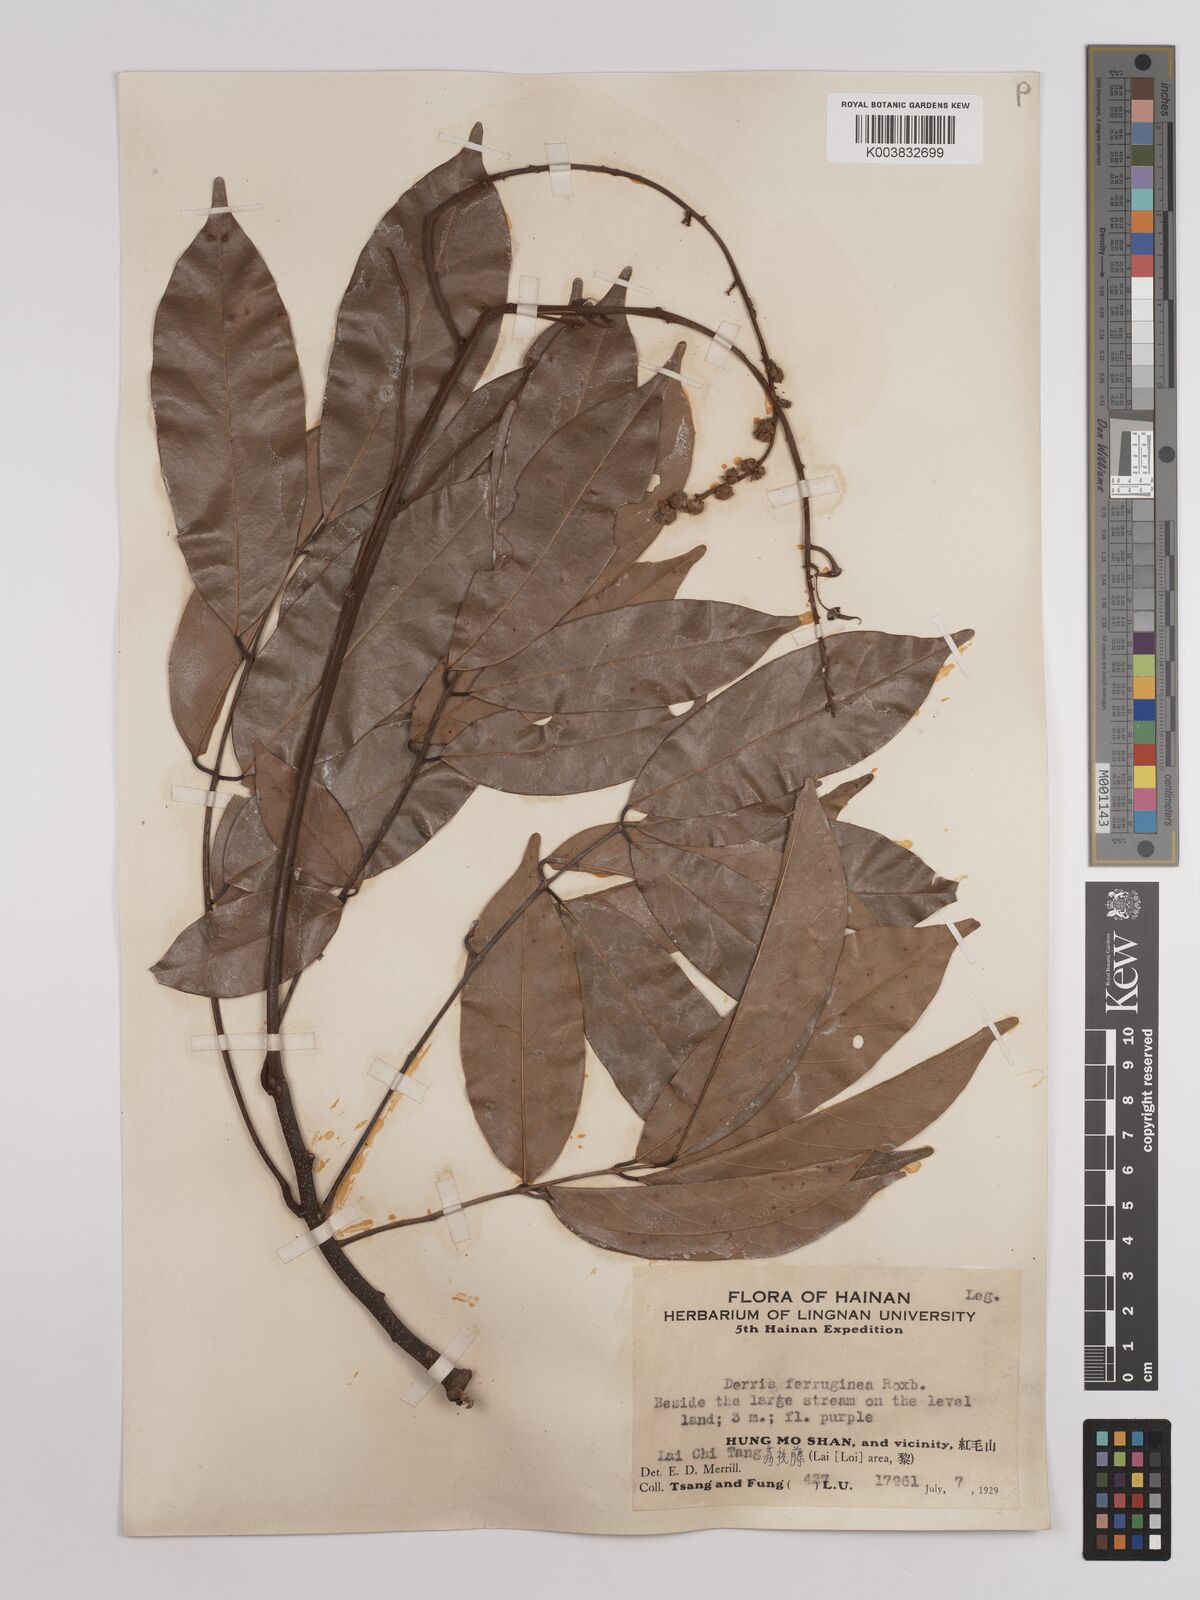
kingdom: Plantae
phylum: Tracheophyta
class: Magnoliopsida
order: Fabales
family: Fabaceae
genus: Derris
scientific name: Derris ferruginea
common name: Indian tubaroot
